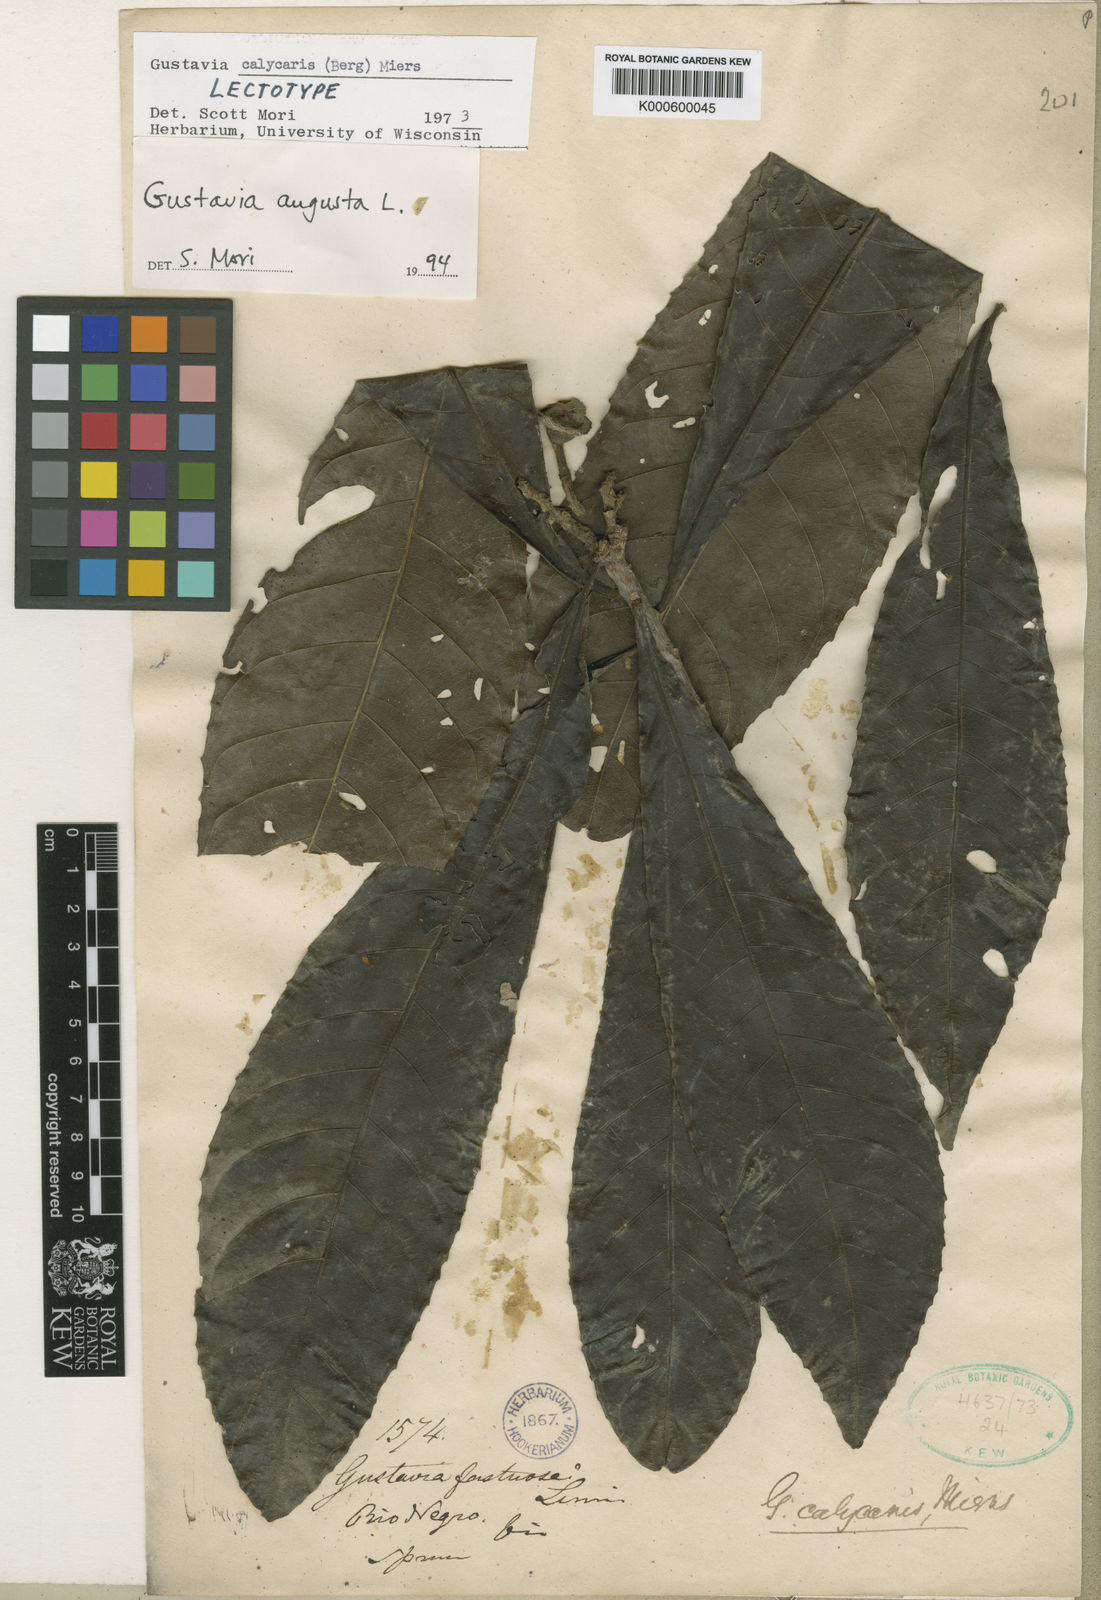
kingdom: Plantae
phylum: Tracheophyta
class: Magnoliopsida
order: Ericales
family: Lecythidaceae
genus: Gustavia
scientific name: Gustavia augusta
